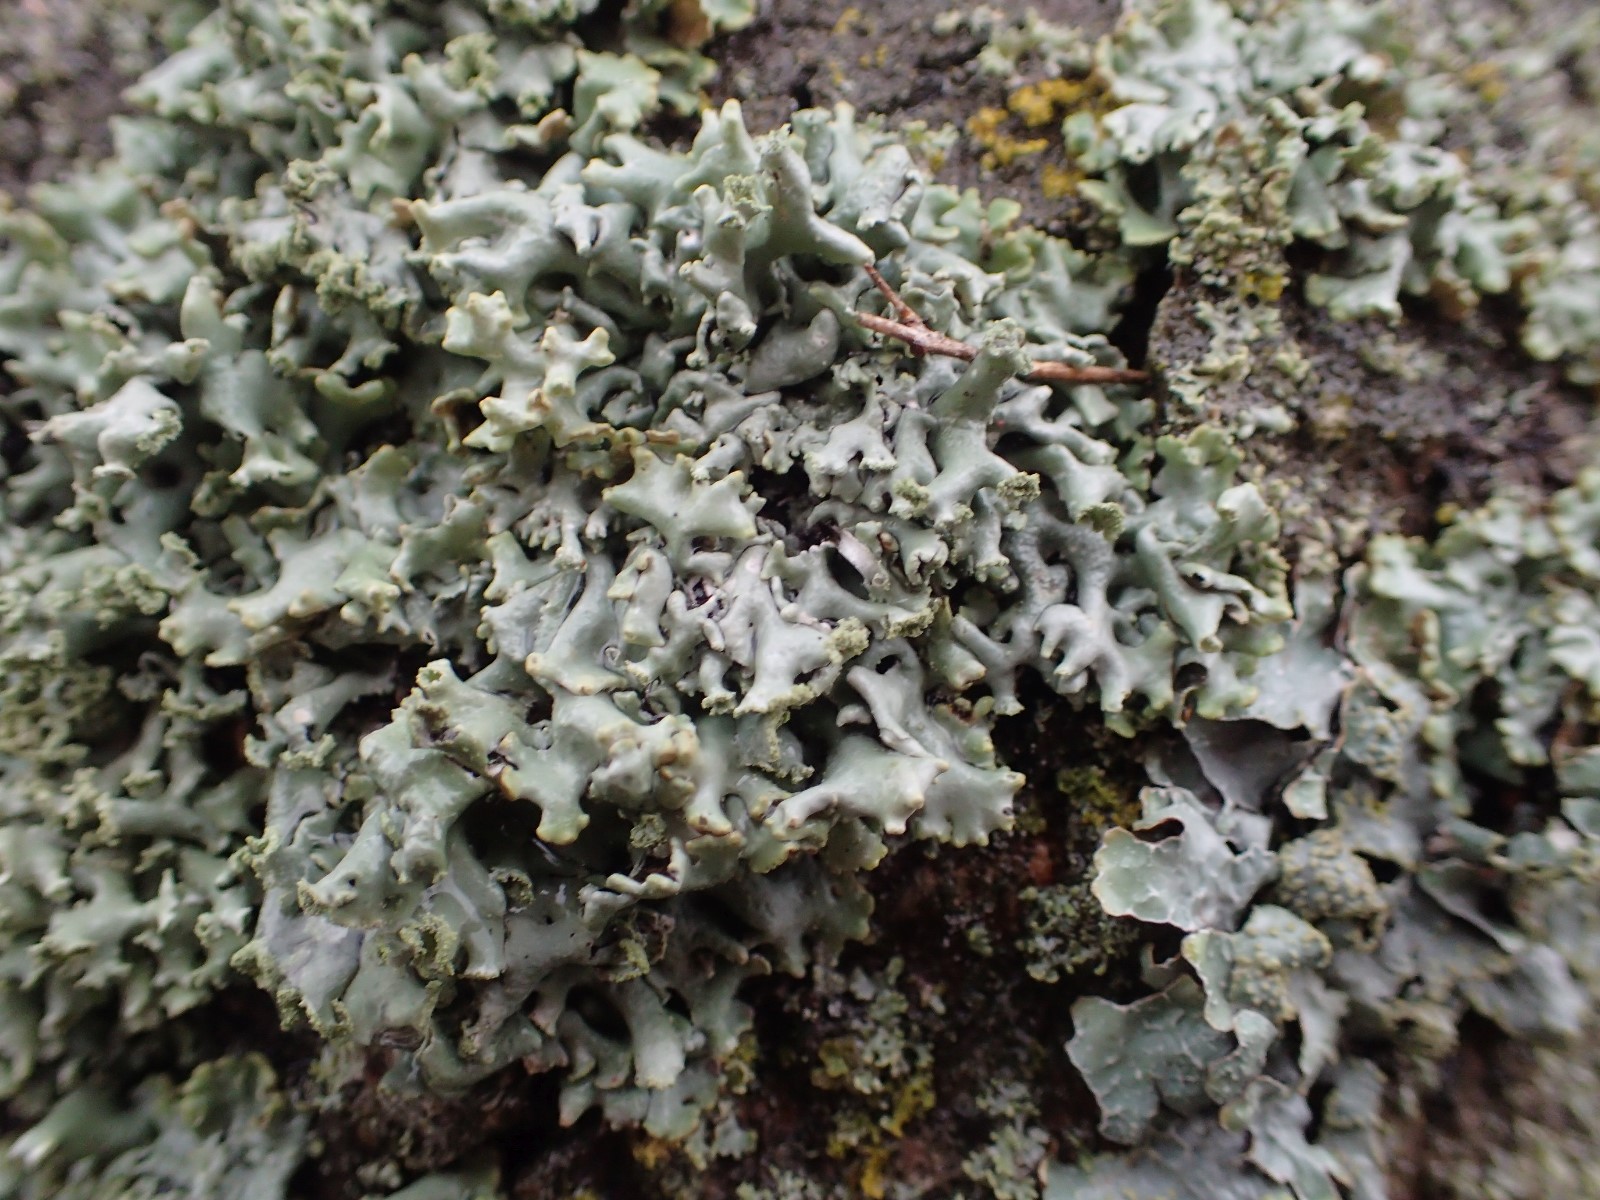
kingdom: Fungi
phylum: Ascomycota
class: Lecanoromycetes
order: Lecanorales
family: Parmeliaceae
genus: Hypogymnia
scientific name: Hypogymnia physodes
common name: almindelig kvistlav
